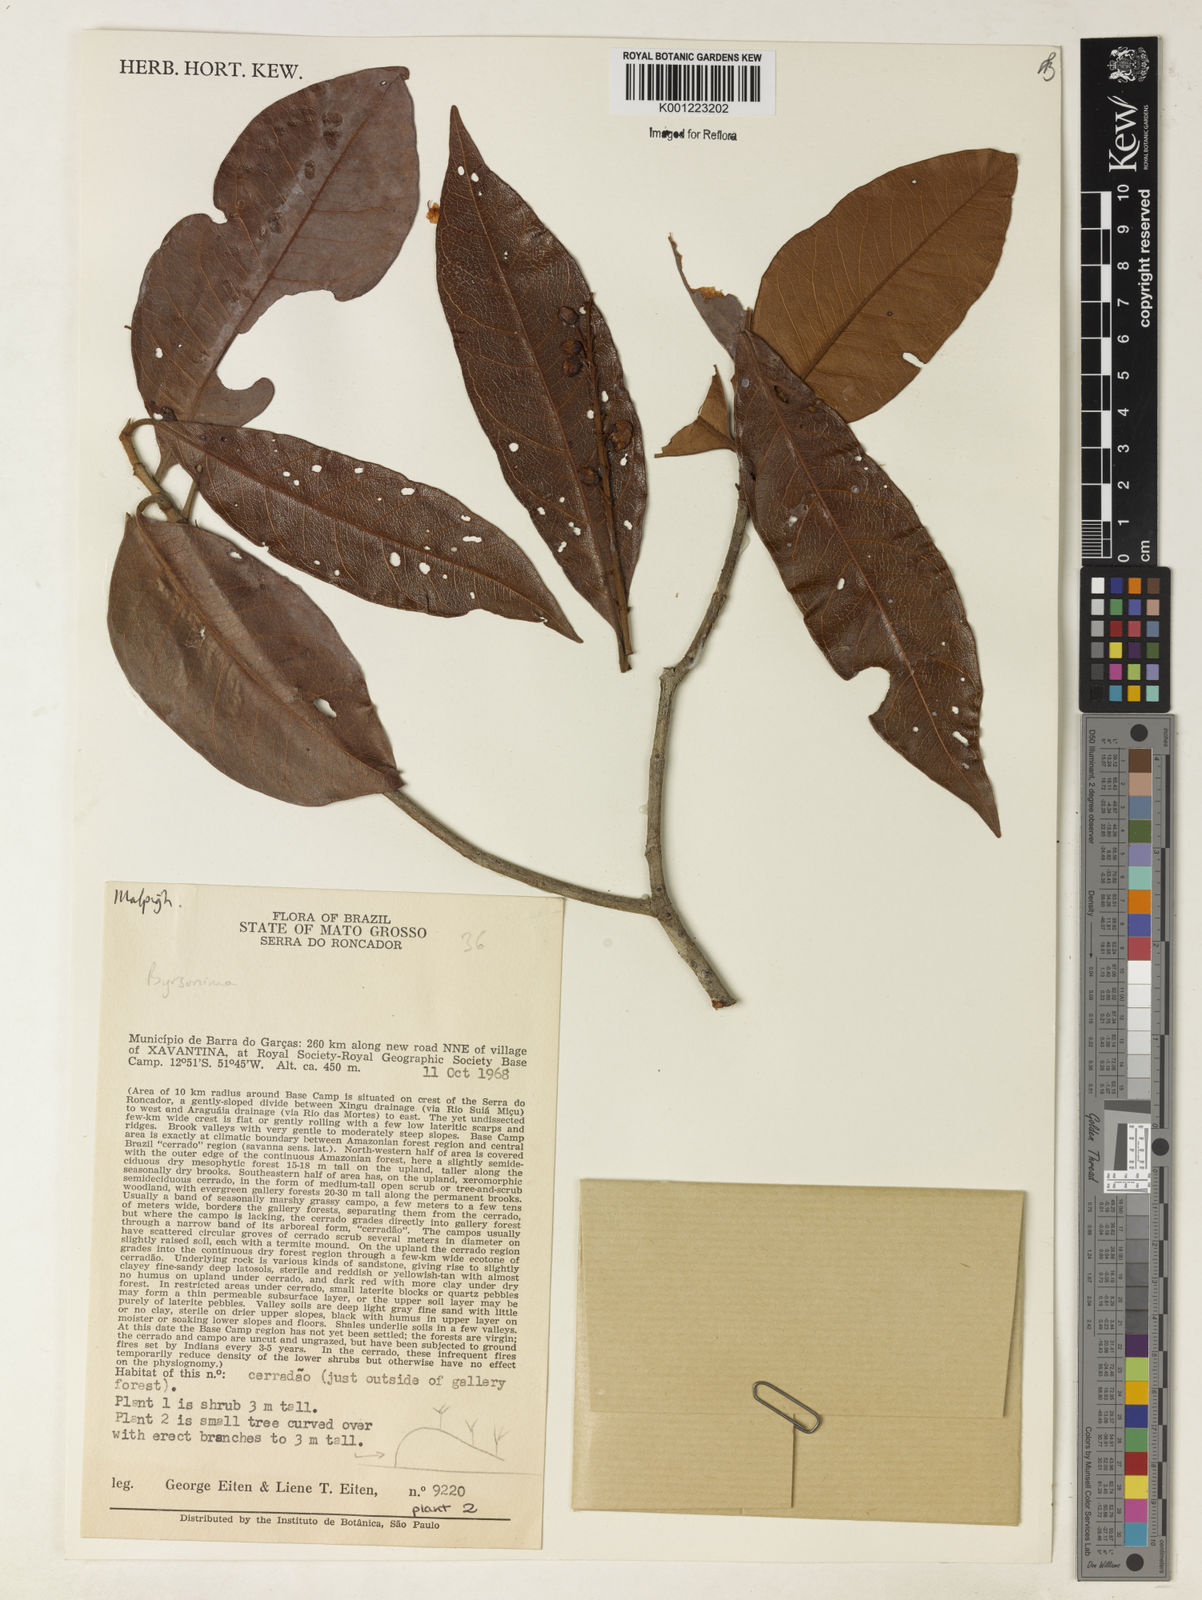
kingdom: Plantae
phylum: Tracheophyta
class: Magnoliopsida
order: Malpighiales
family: Malpighiaceae
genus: Byrsonima
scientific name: Byrsonima
